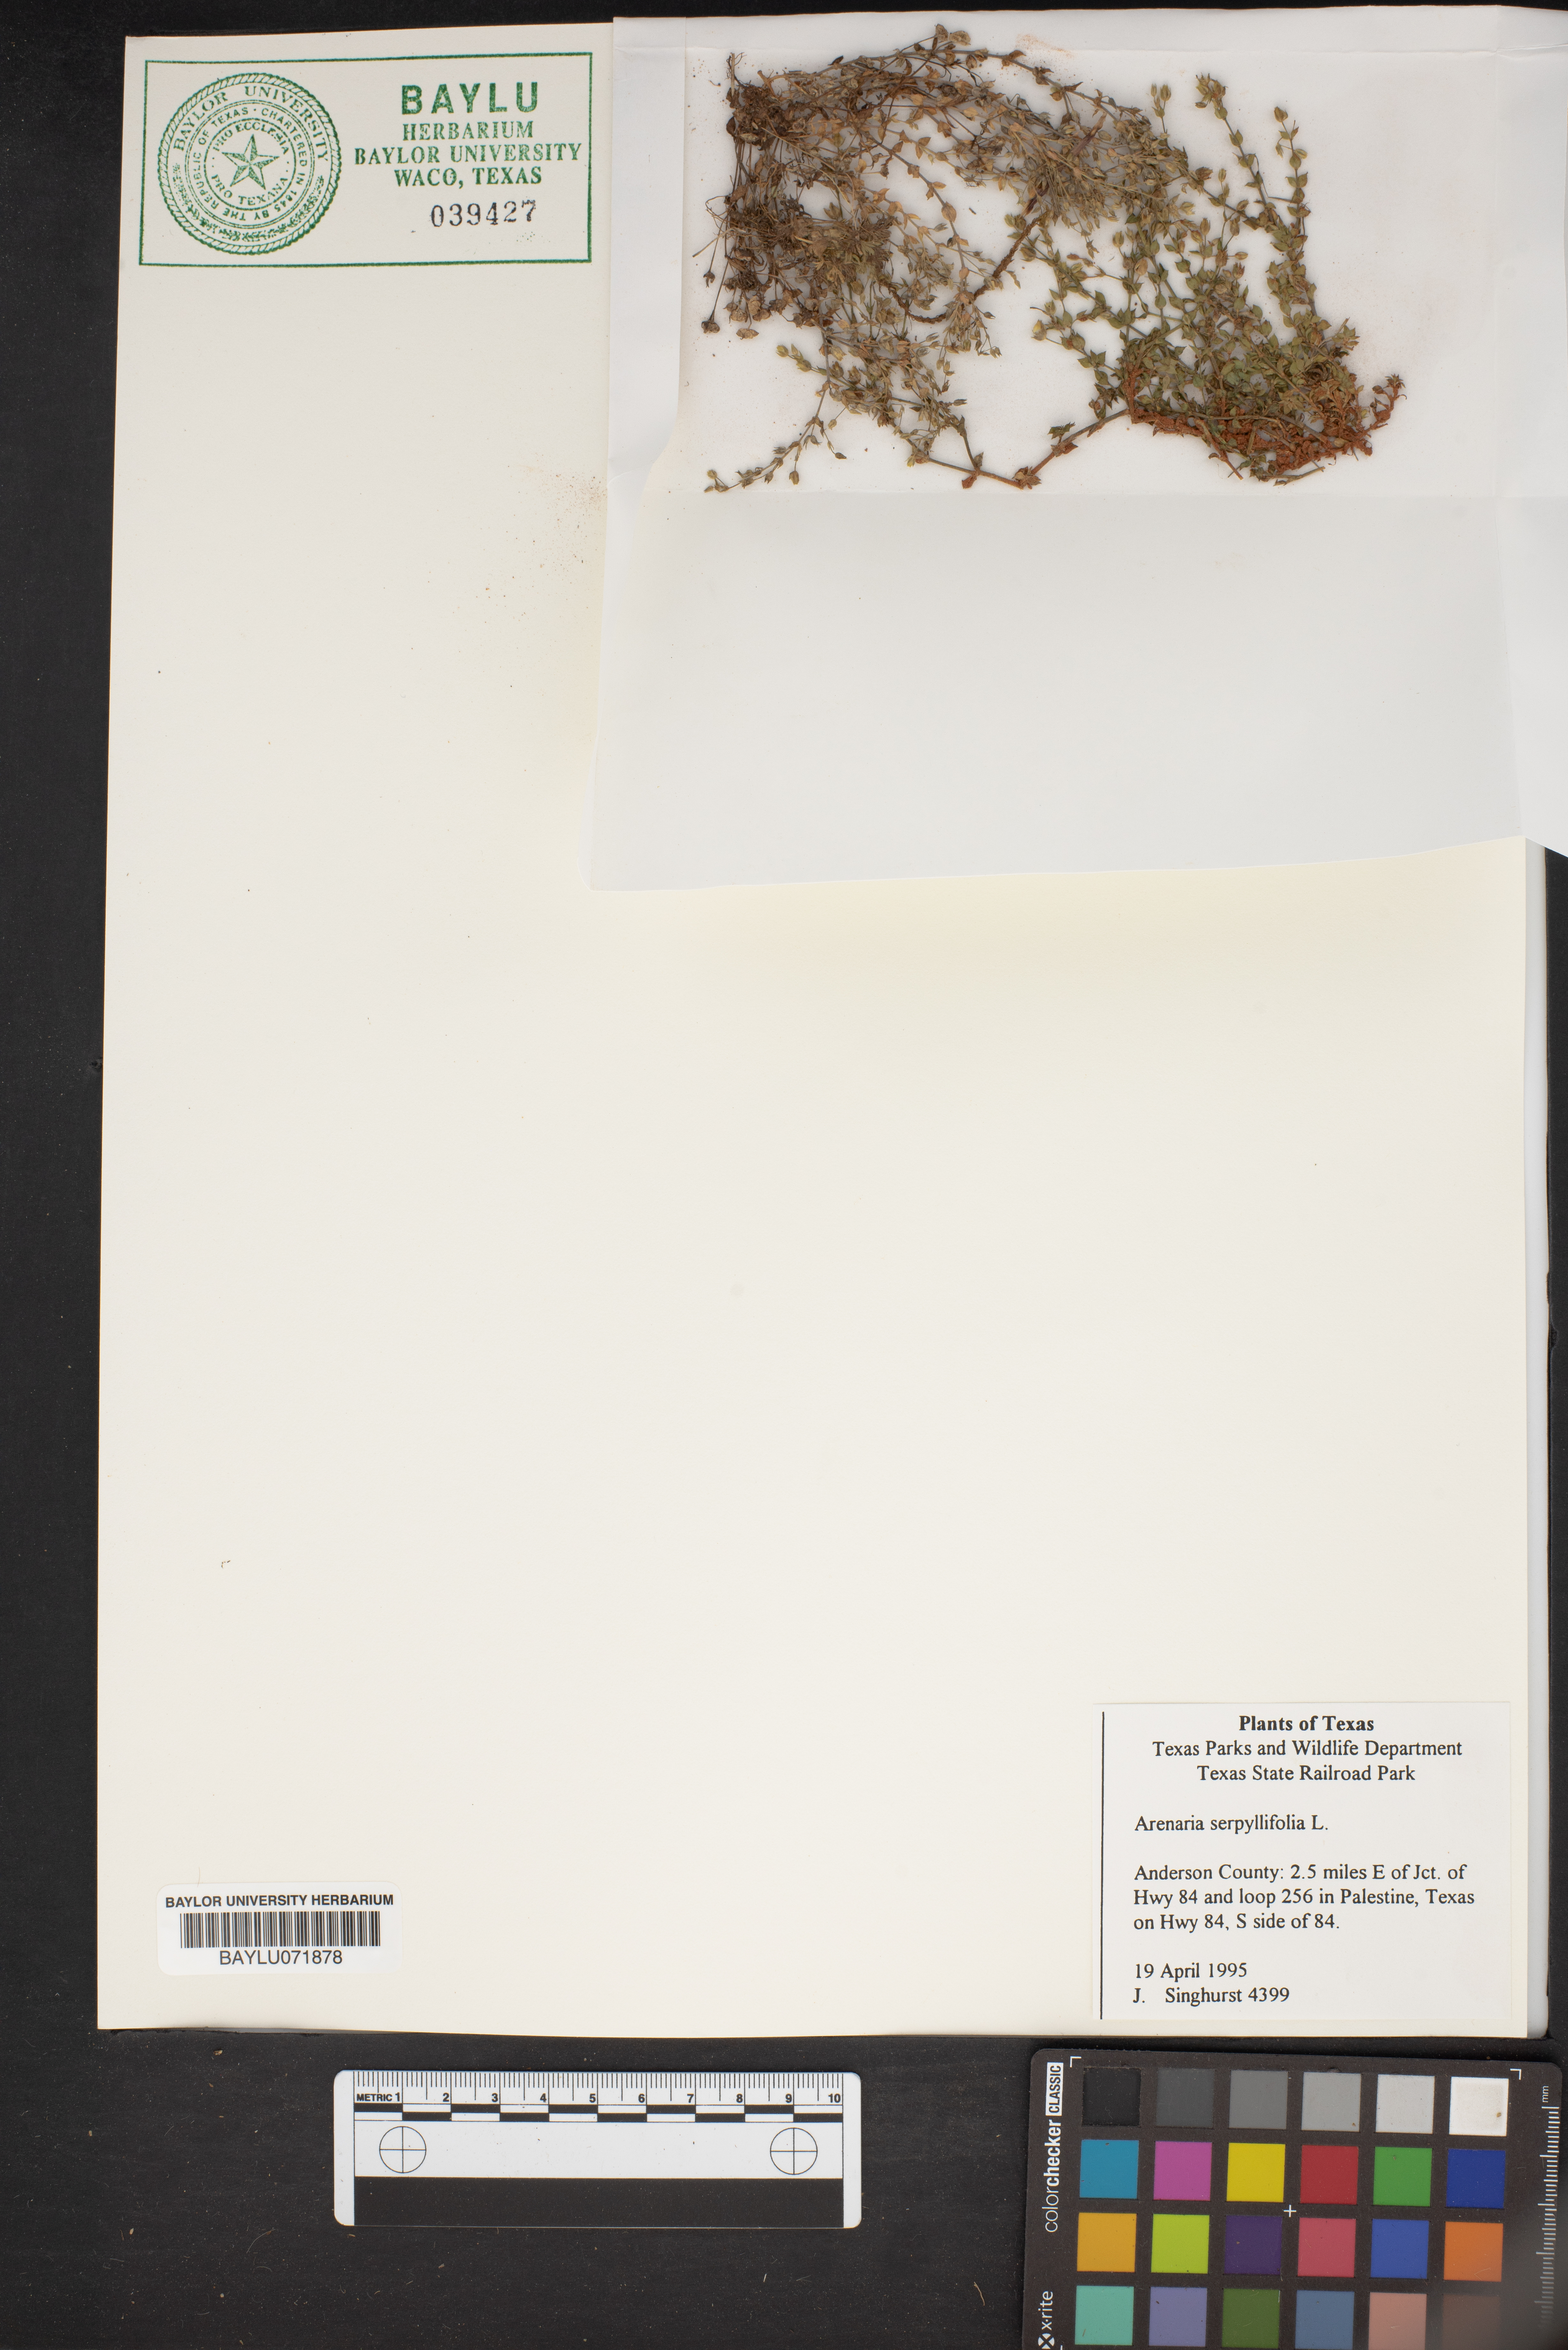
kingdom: Plantae
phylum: Tracheophyta
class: Magnoliopsida
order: Caryophyllales
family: Caryophyllaceae
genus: Arenaria
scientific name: Arenaria serpyllifolia
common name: Thyme-leaved sandwort
